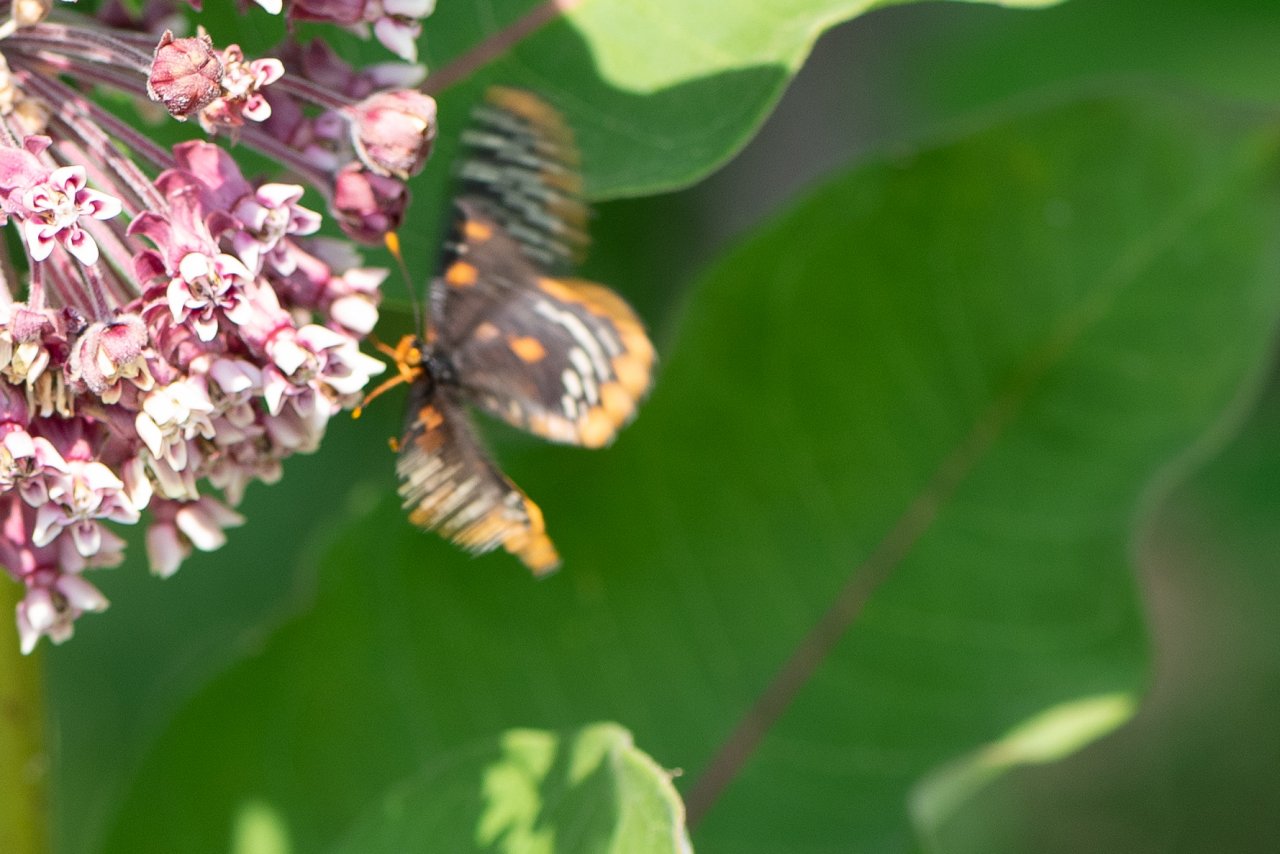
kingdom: Animalia
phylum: Arthropoda
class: Insecta
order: Lepidoptera
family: Nymphalidae
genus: Euphydryas
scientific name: Euphydryas phaeton
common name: Baltimore Checkerspot
